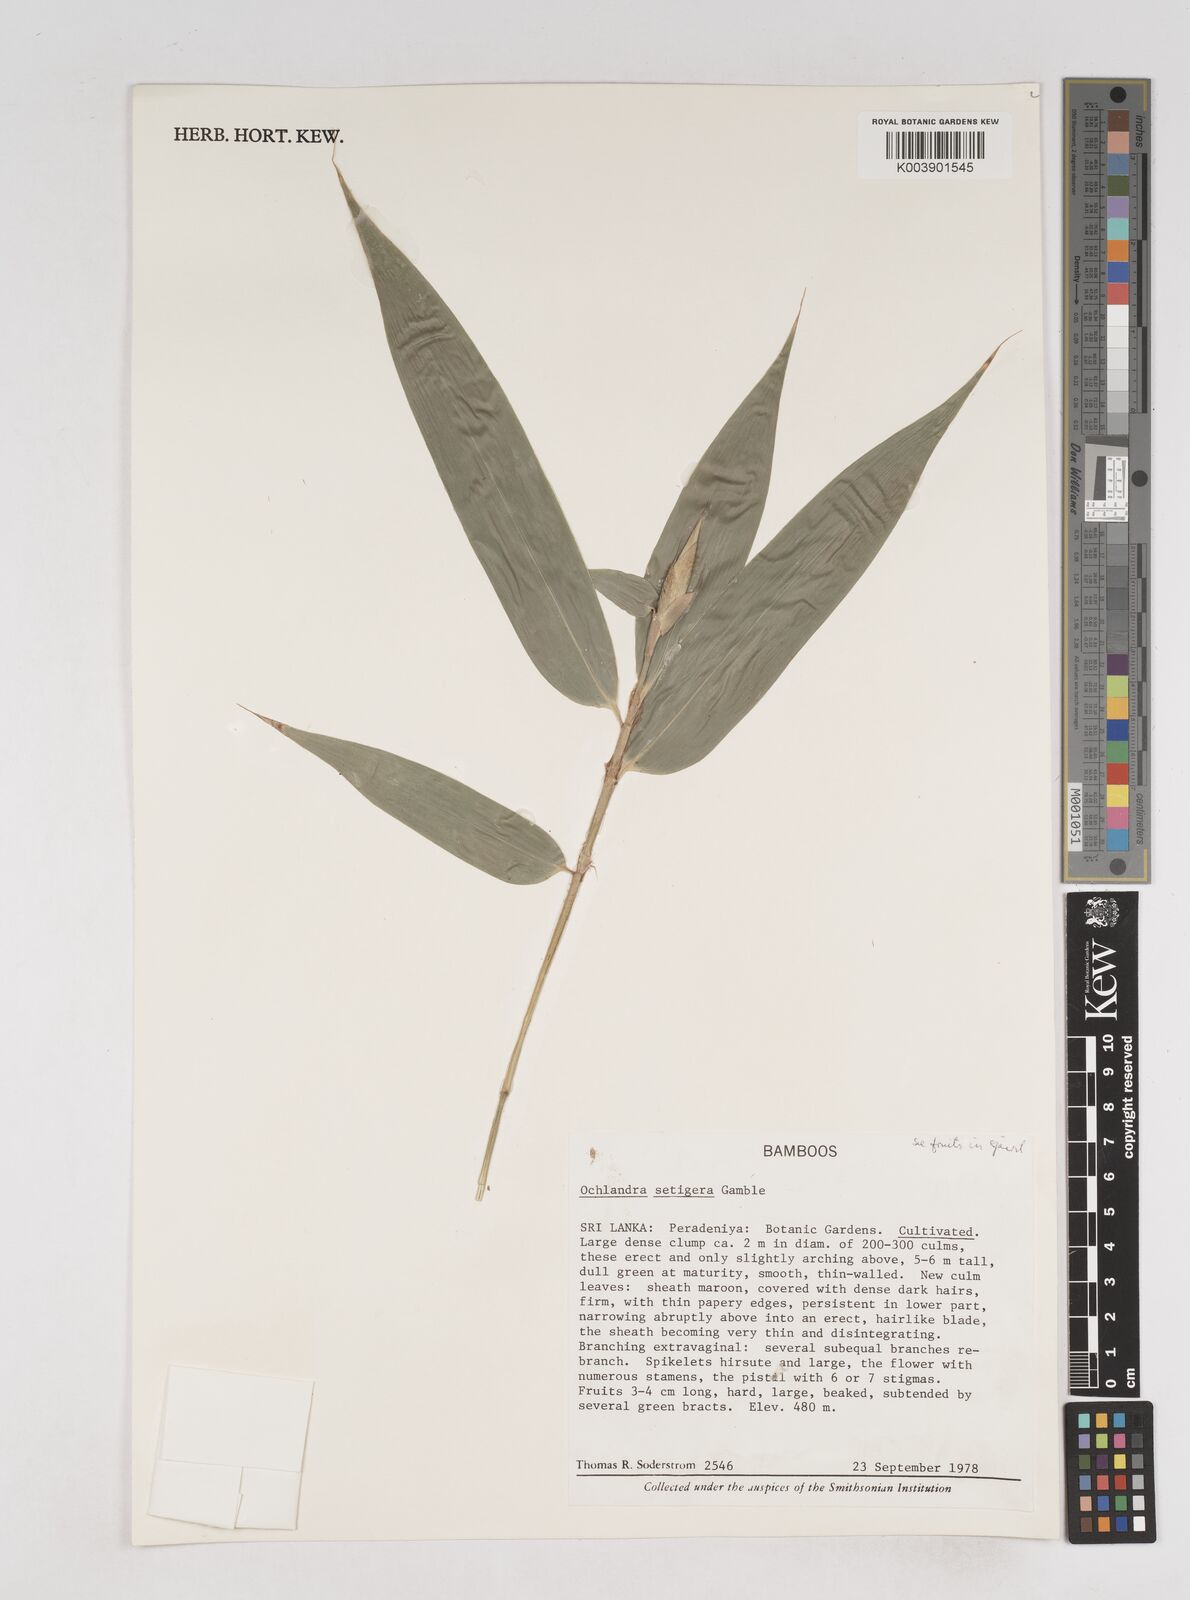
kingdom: Plantae
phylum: Tracheophyta
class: Liliopsida
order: Poales
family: Poaceae
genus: Ochlandra
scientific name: Ochlandra setigera
